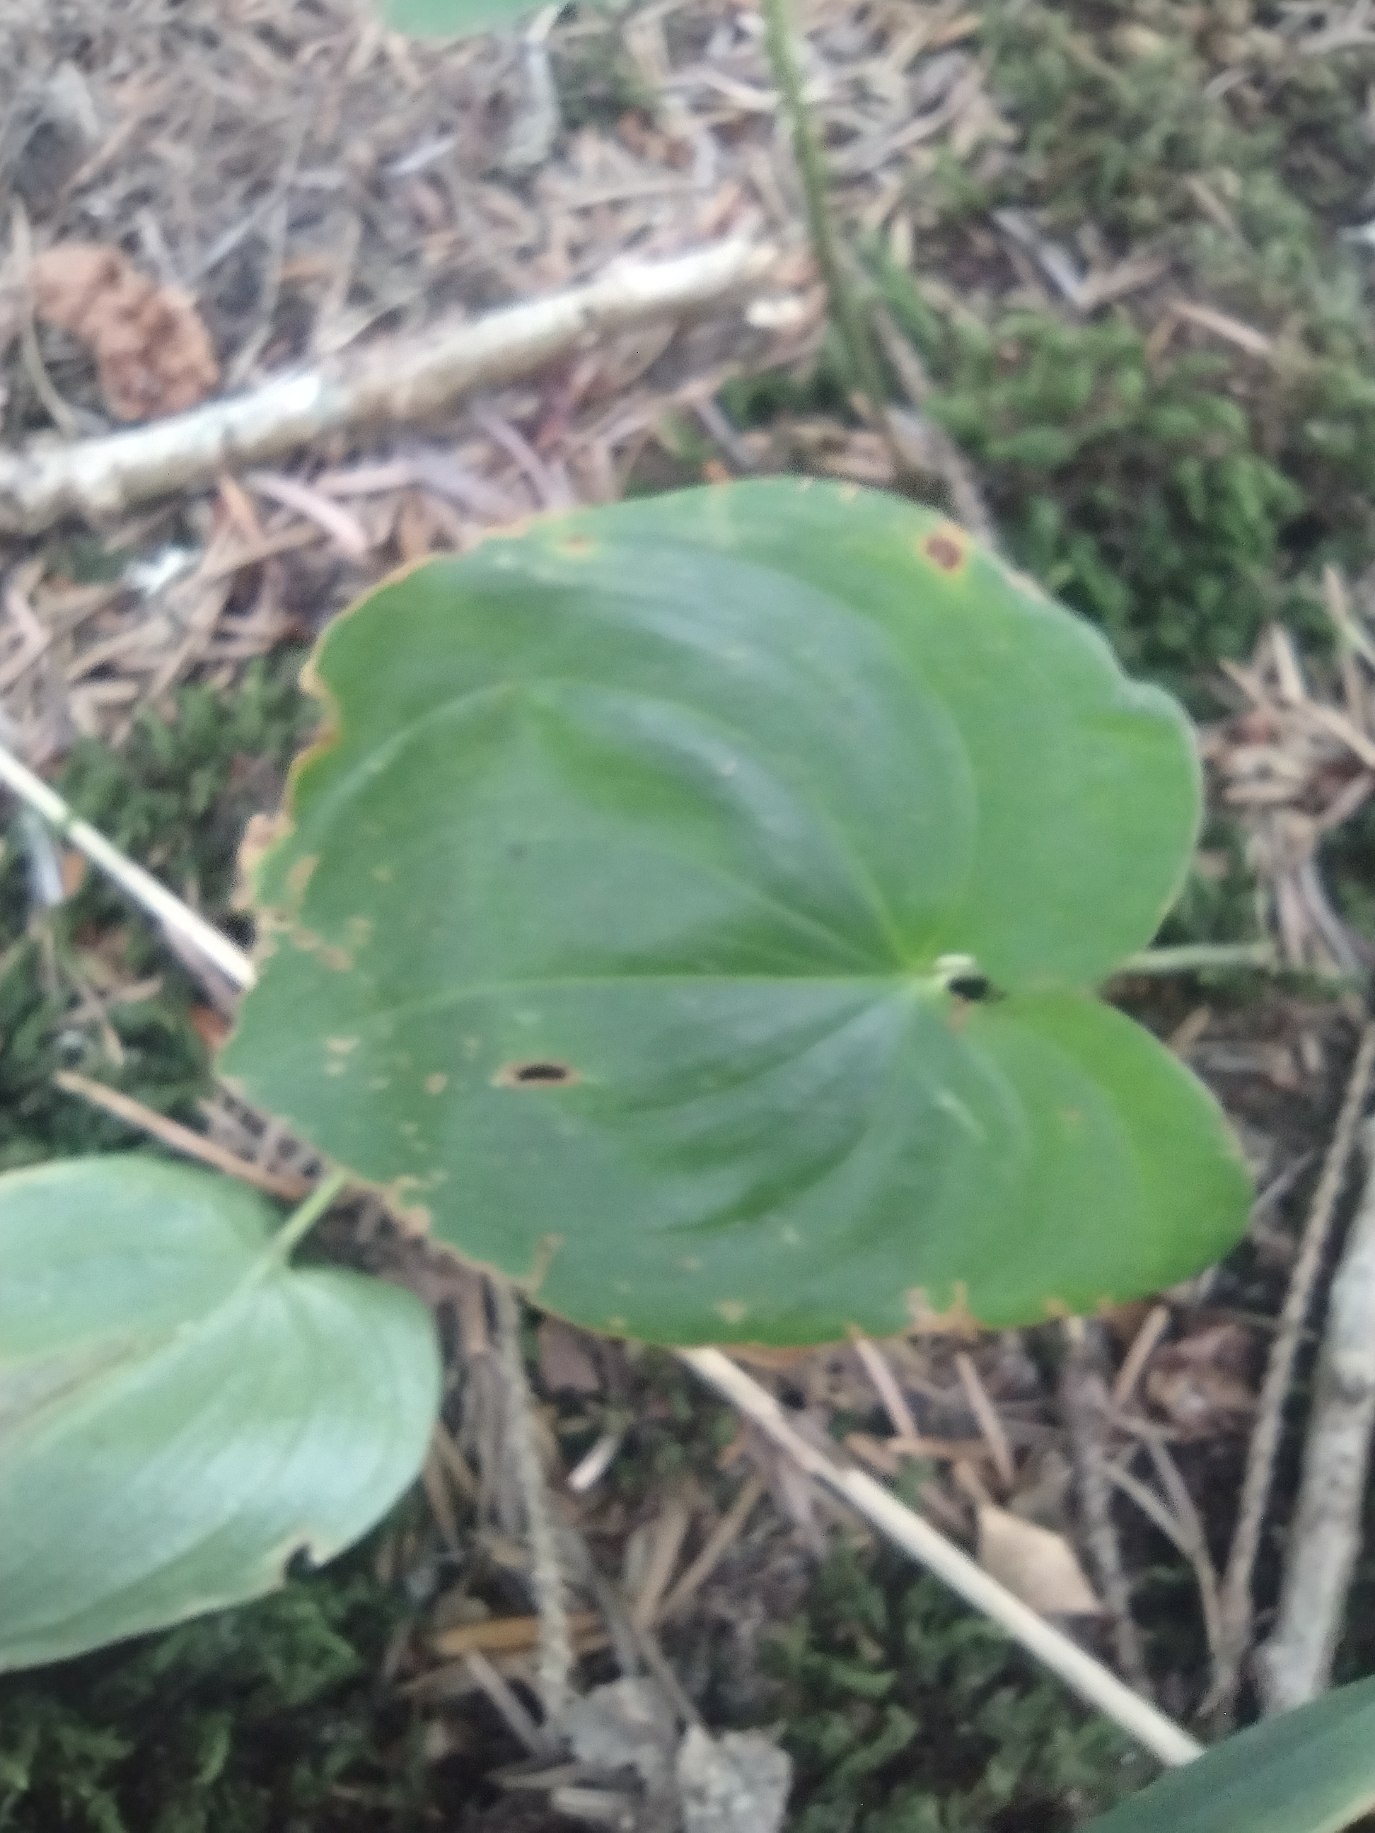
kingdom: Plantae
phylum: Tracheophyta
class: Liliopsida
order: Asparagales
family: Asparagaceae
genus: Maianthemum
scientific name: Maianthemum bifolium
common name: Majblomst
